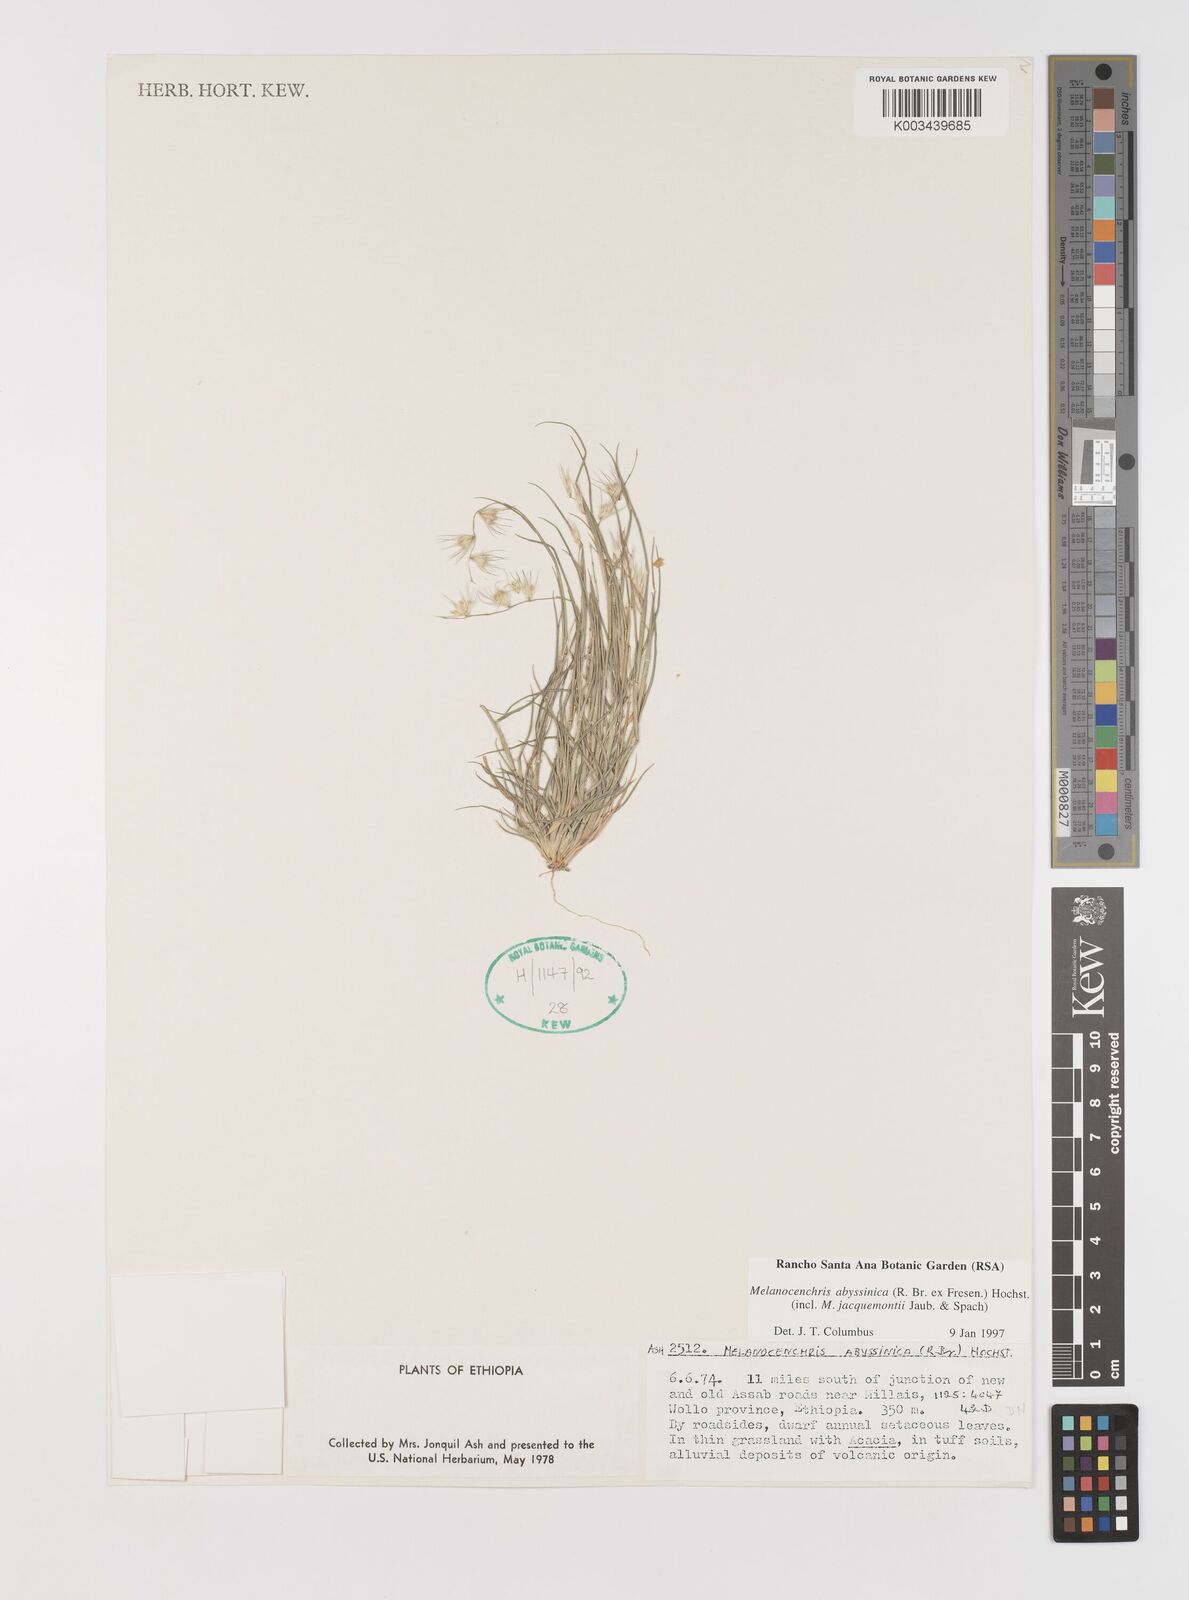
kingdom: Plantae
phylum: Tracheophyta
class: Liliopsida
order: Poales
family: Poaceae
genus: Melanocenchris
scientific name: Melanocenchris abyssinica
